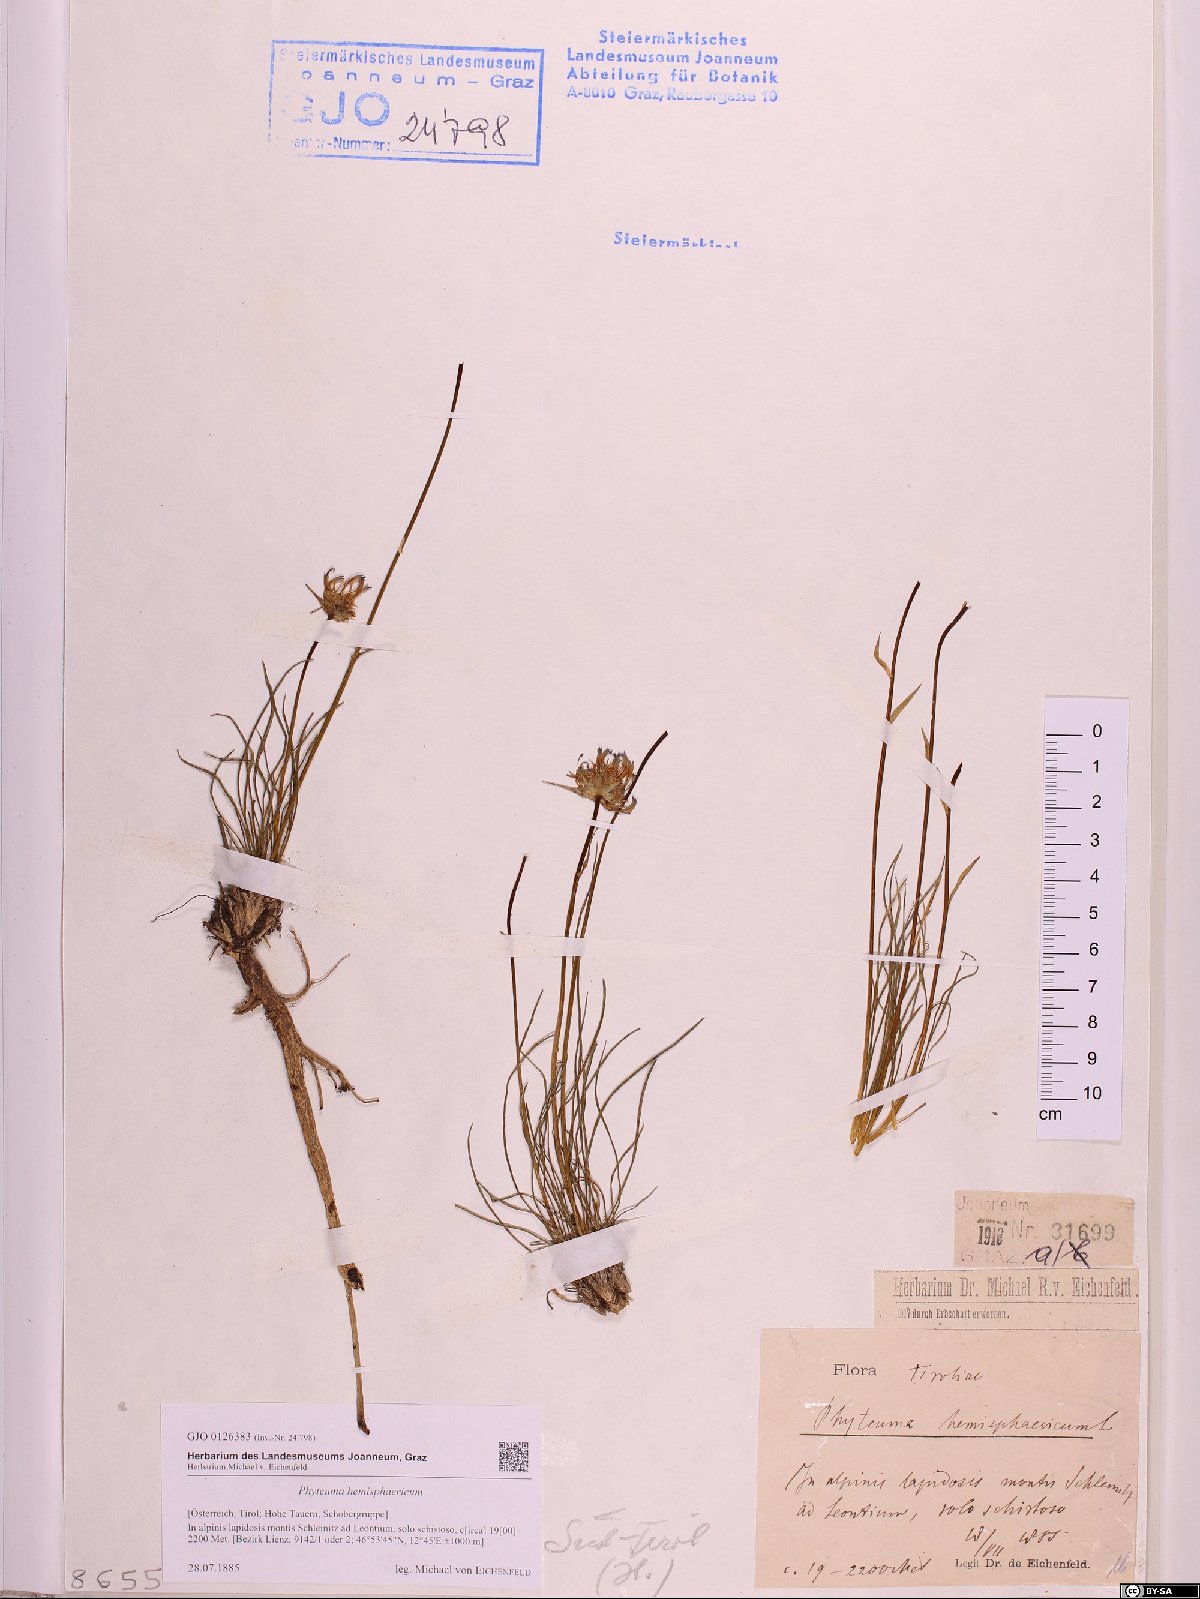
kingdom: Plantae
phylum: Tracheophyta
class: Magnoliopsida
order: Asterales
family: Campanulaceae
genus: Phyteuma
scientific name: Phyteuma hemisphaericum
